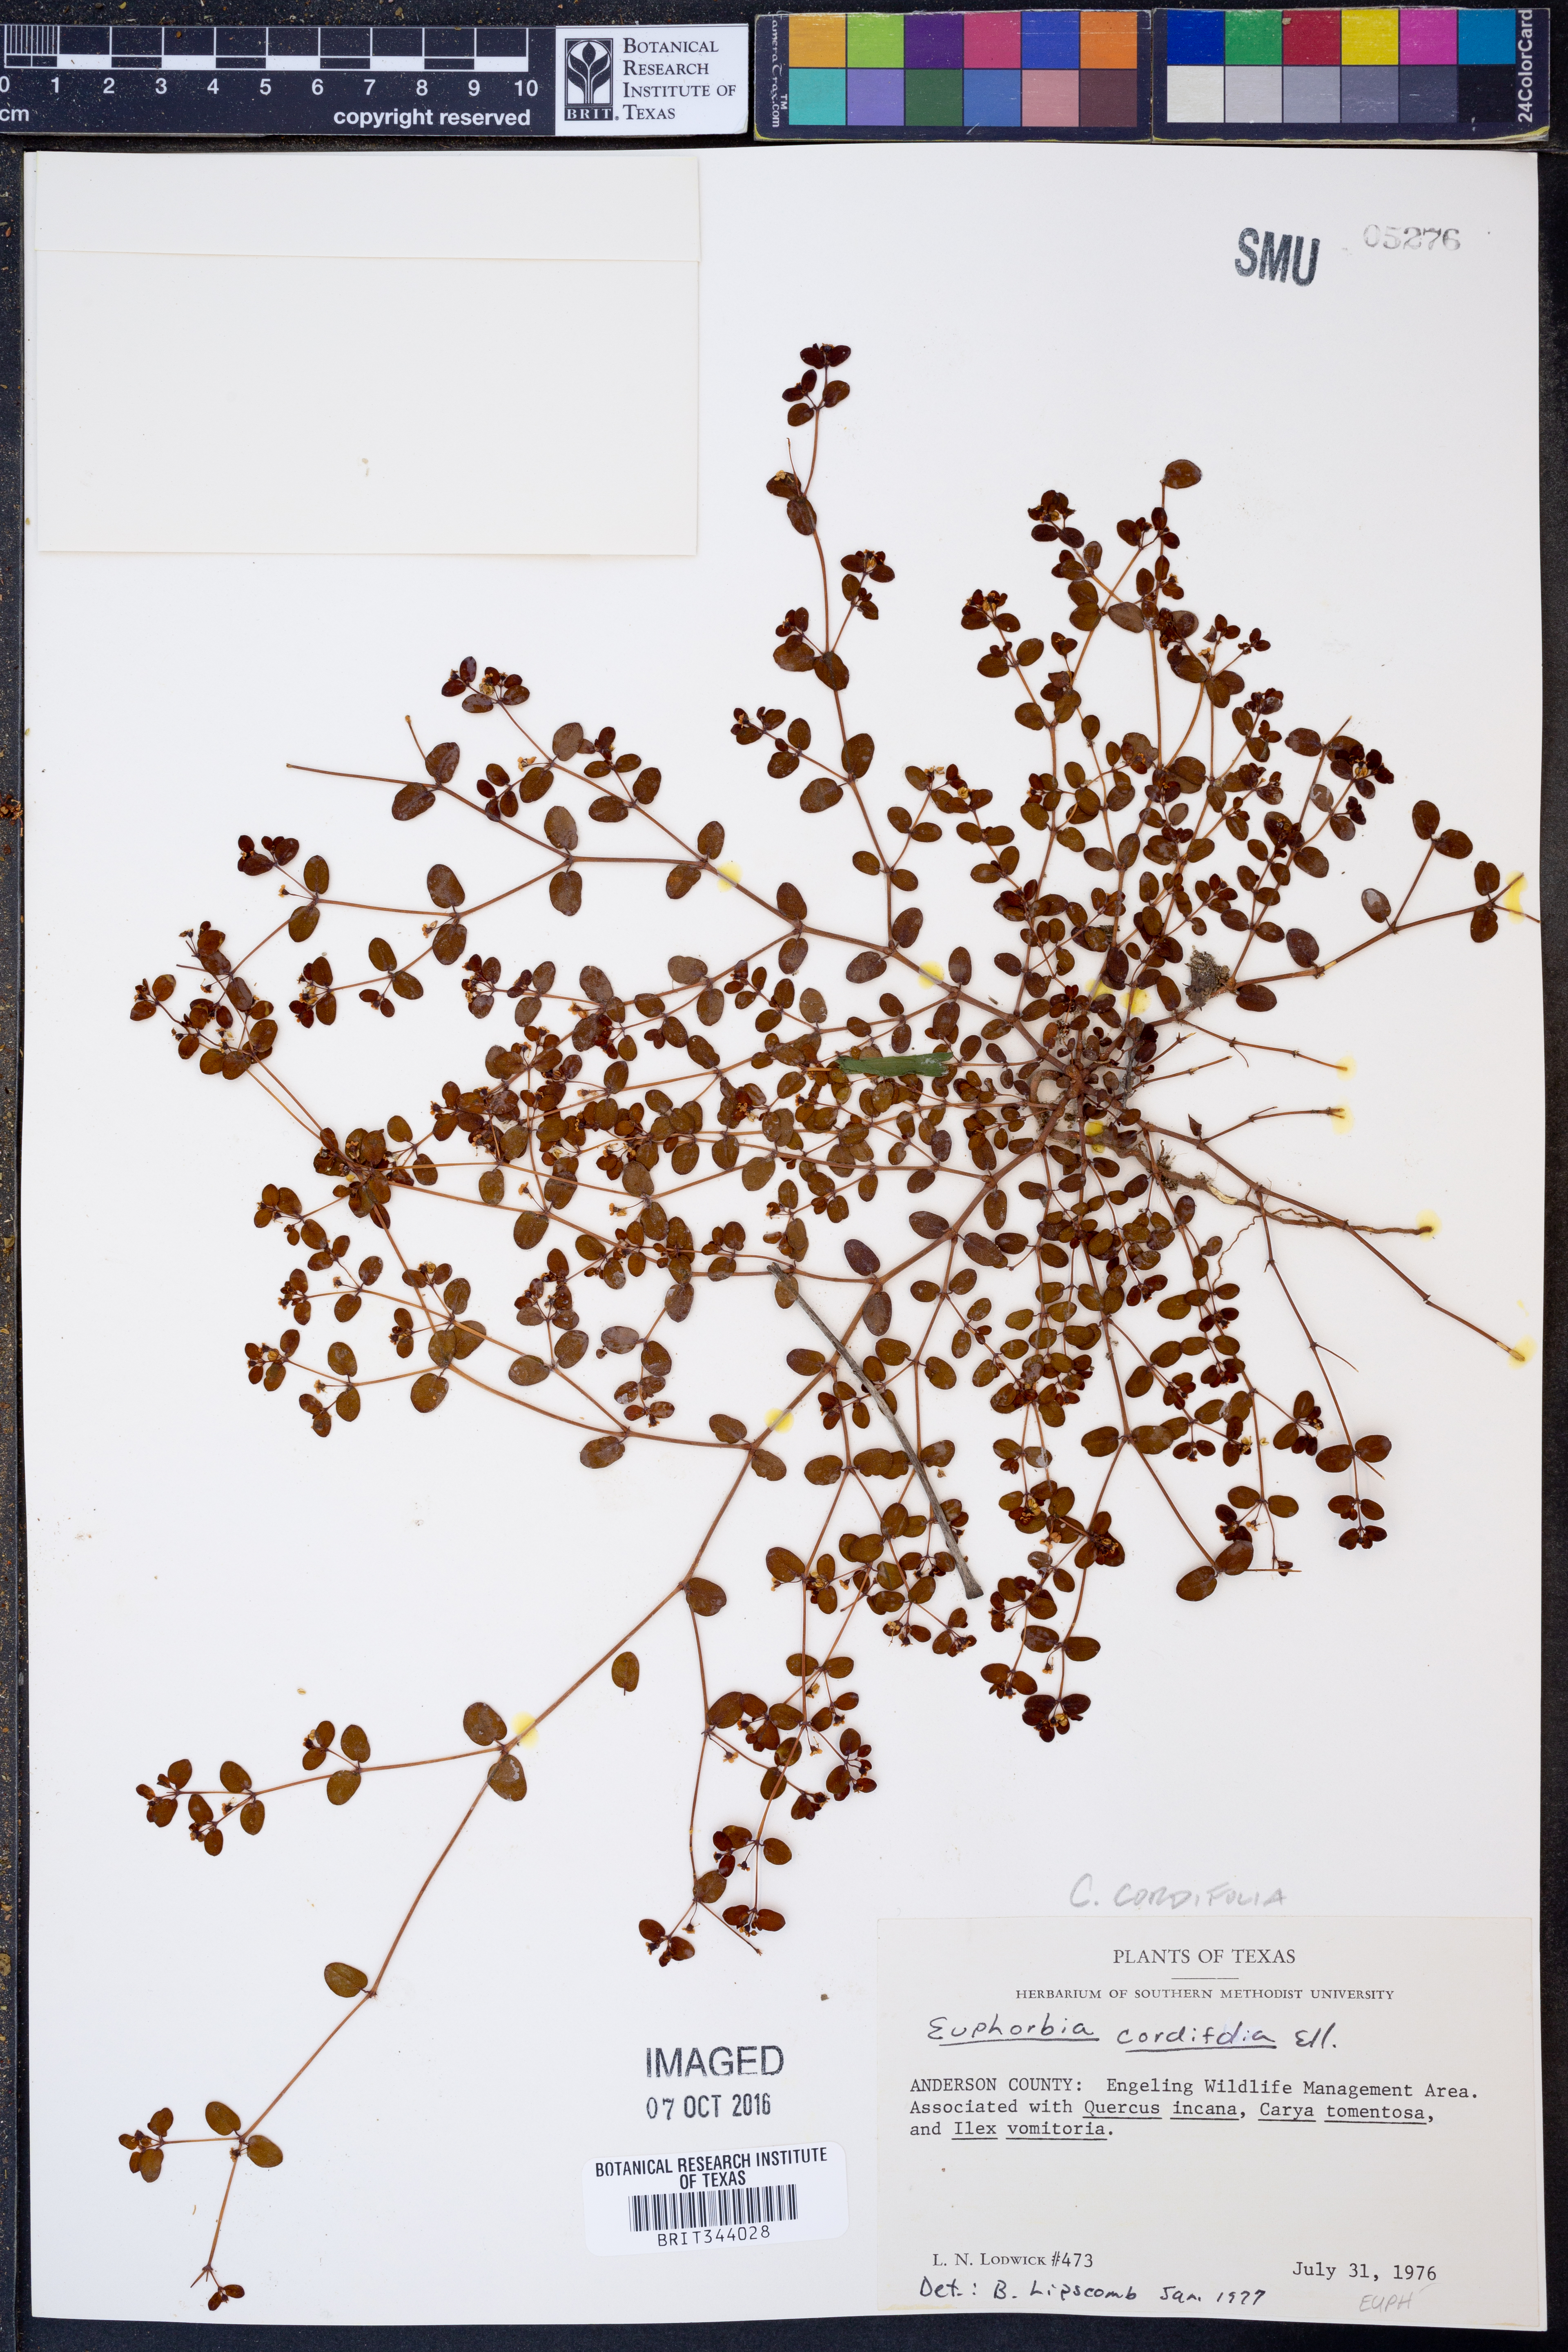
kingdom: Plantae
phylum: Tracheophyta
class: Magnoliopsida
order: Malpighiales
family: Euphorbiaceae
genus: Euphorbia
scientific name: Euphorbia cordifolia
